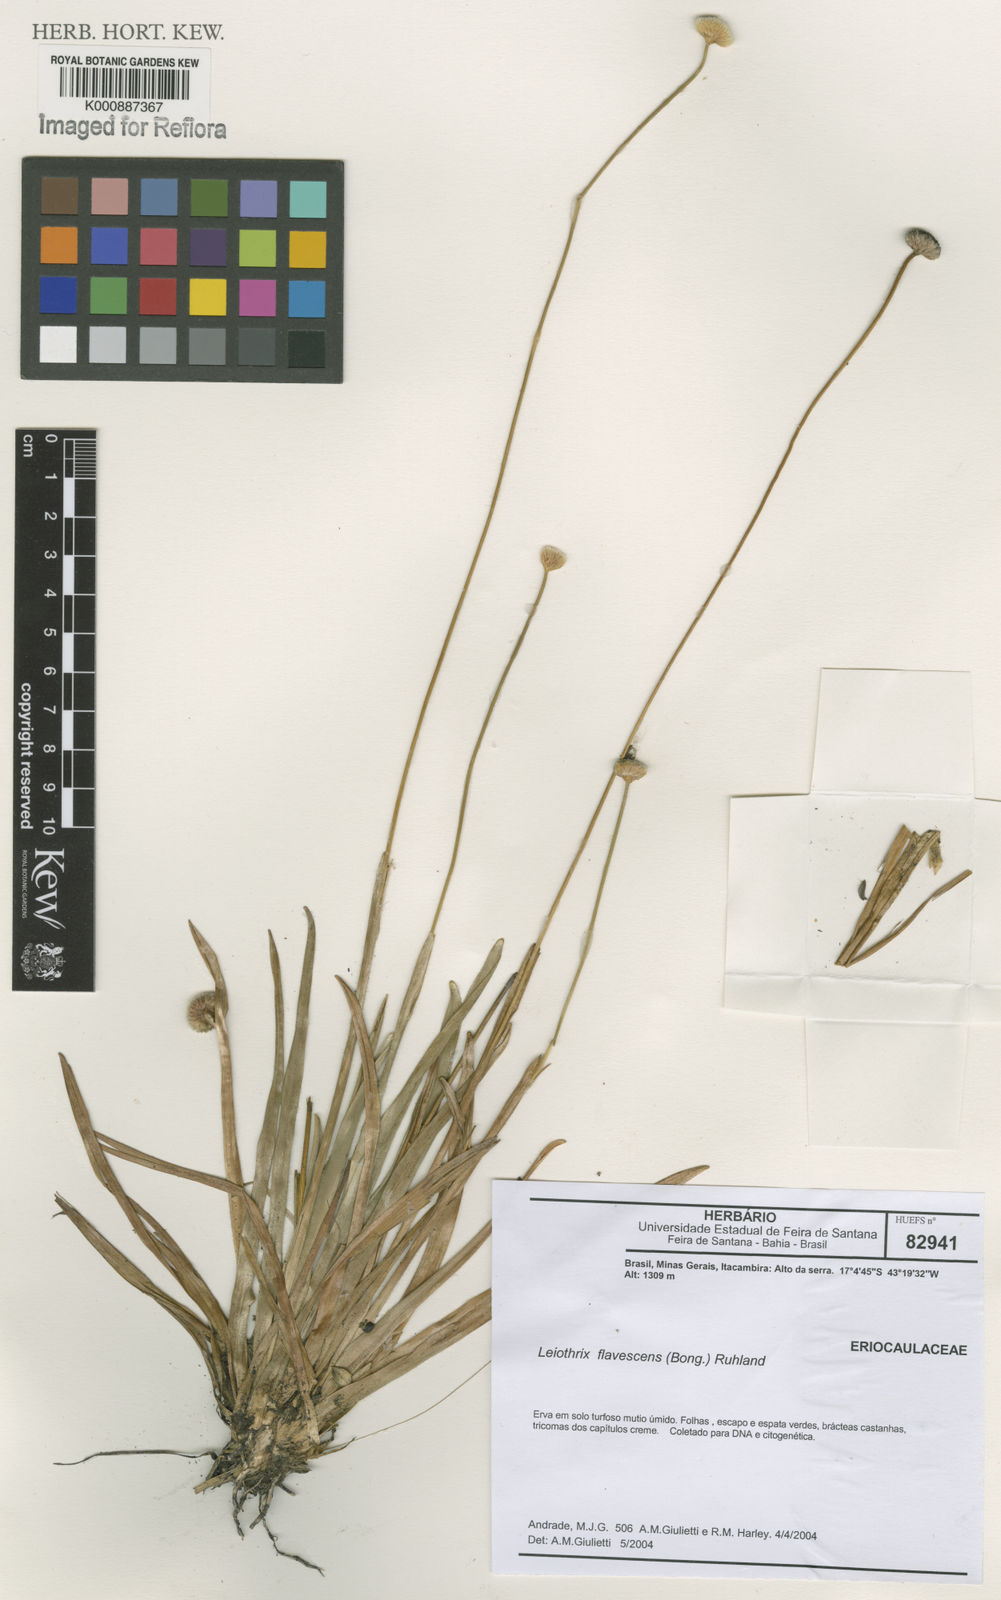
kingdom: Plantae
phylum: Tracheophyta
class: Liliopsida
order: Poales
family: Eriocaulaceae
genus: Leiothrix
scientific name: Leiothrix flavescens
